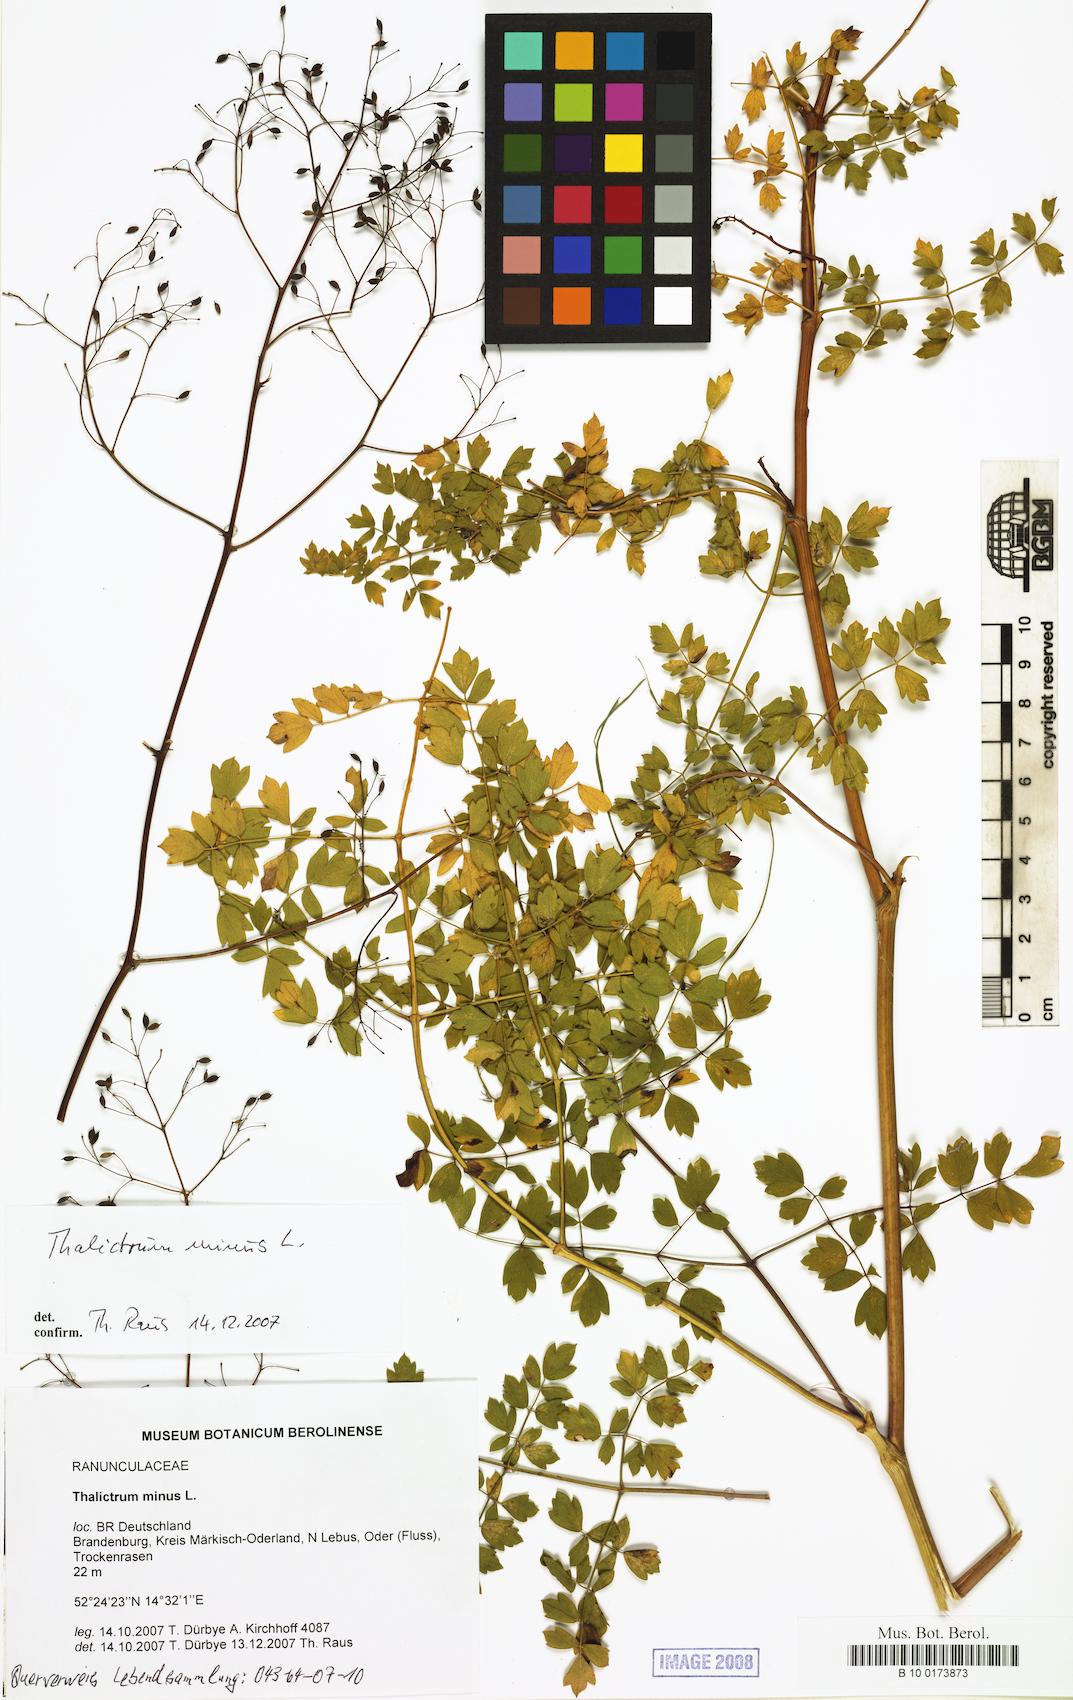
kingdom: Plantae
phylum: Tracheophyta
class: Magnoliopsida
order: Ranunculales
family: Ranunculaceae
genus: Thalictrum
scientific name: Thalictrum minus
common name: Lesser meadow-rue
